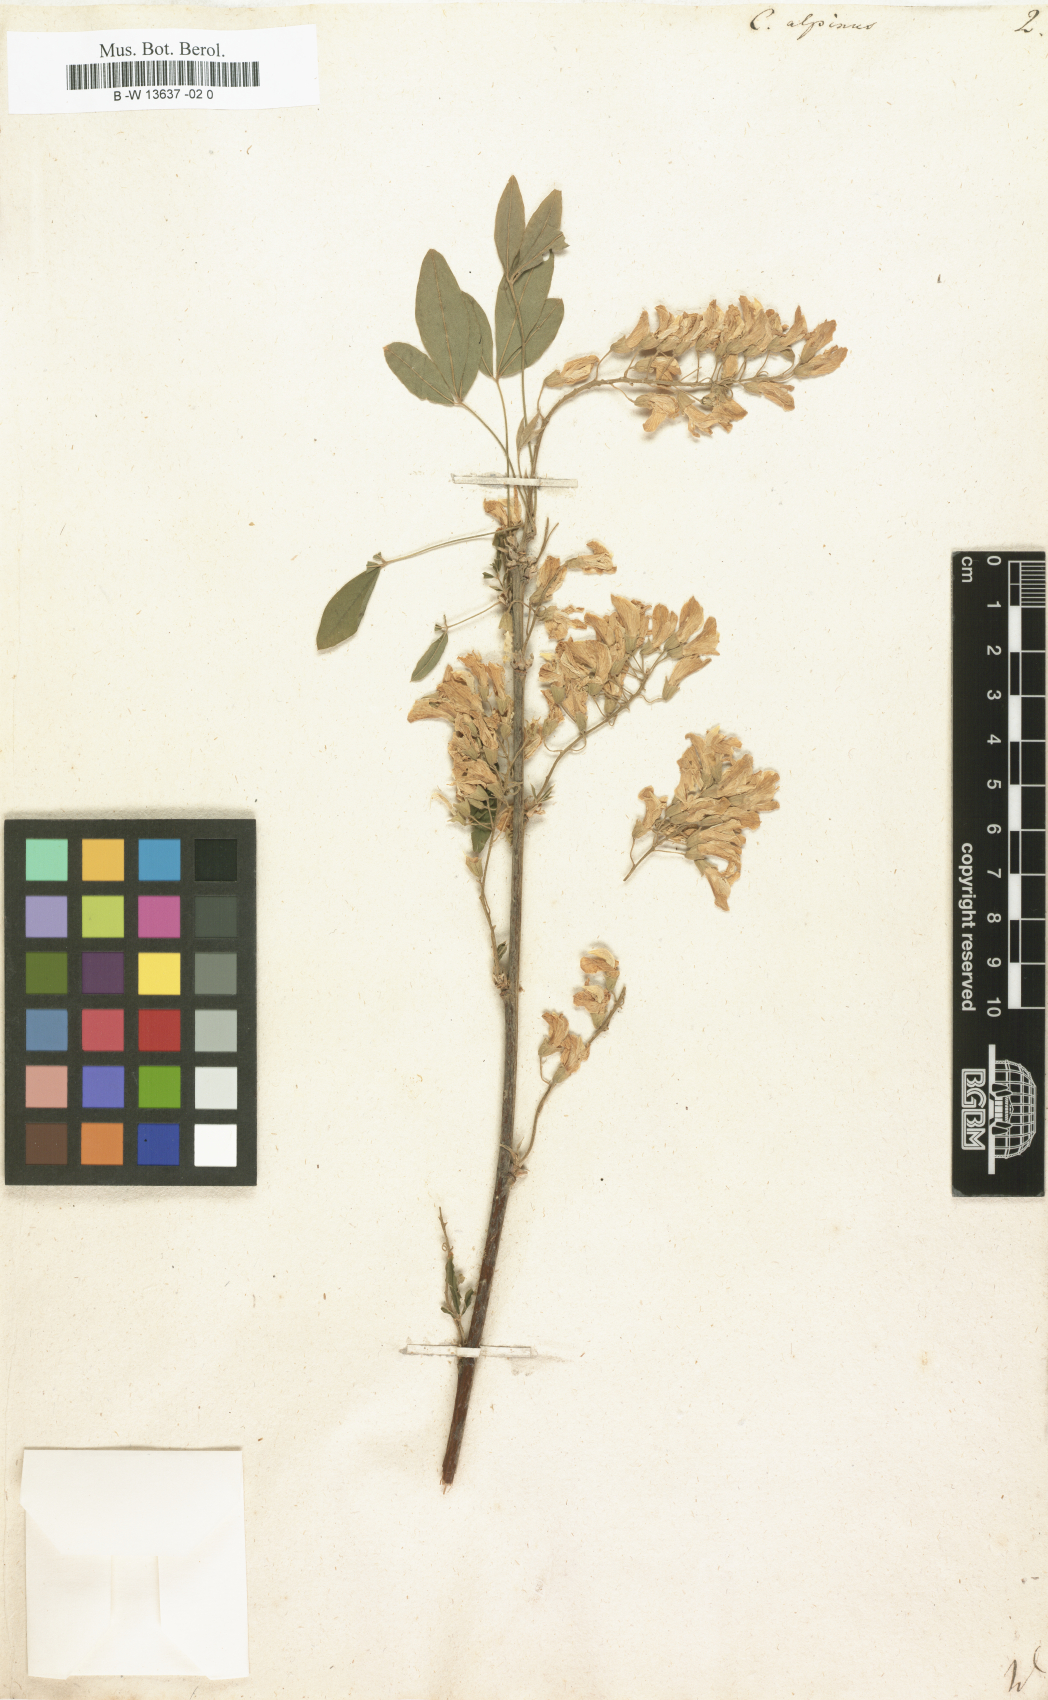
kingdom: Plantae
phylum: Tracheophyta
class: Magnoliopsida
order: Fabales
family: Fabaceae
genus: Laburnum
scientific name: Laburnum alpinum
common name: Scottish laburnum
